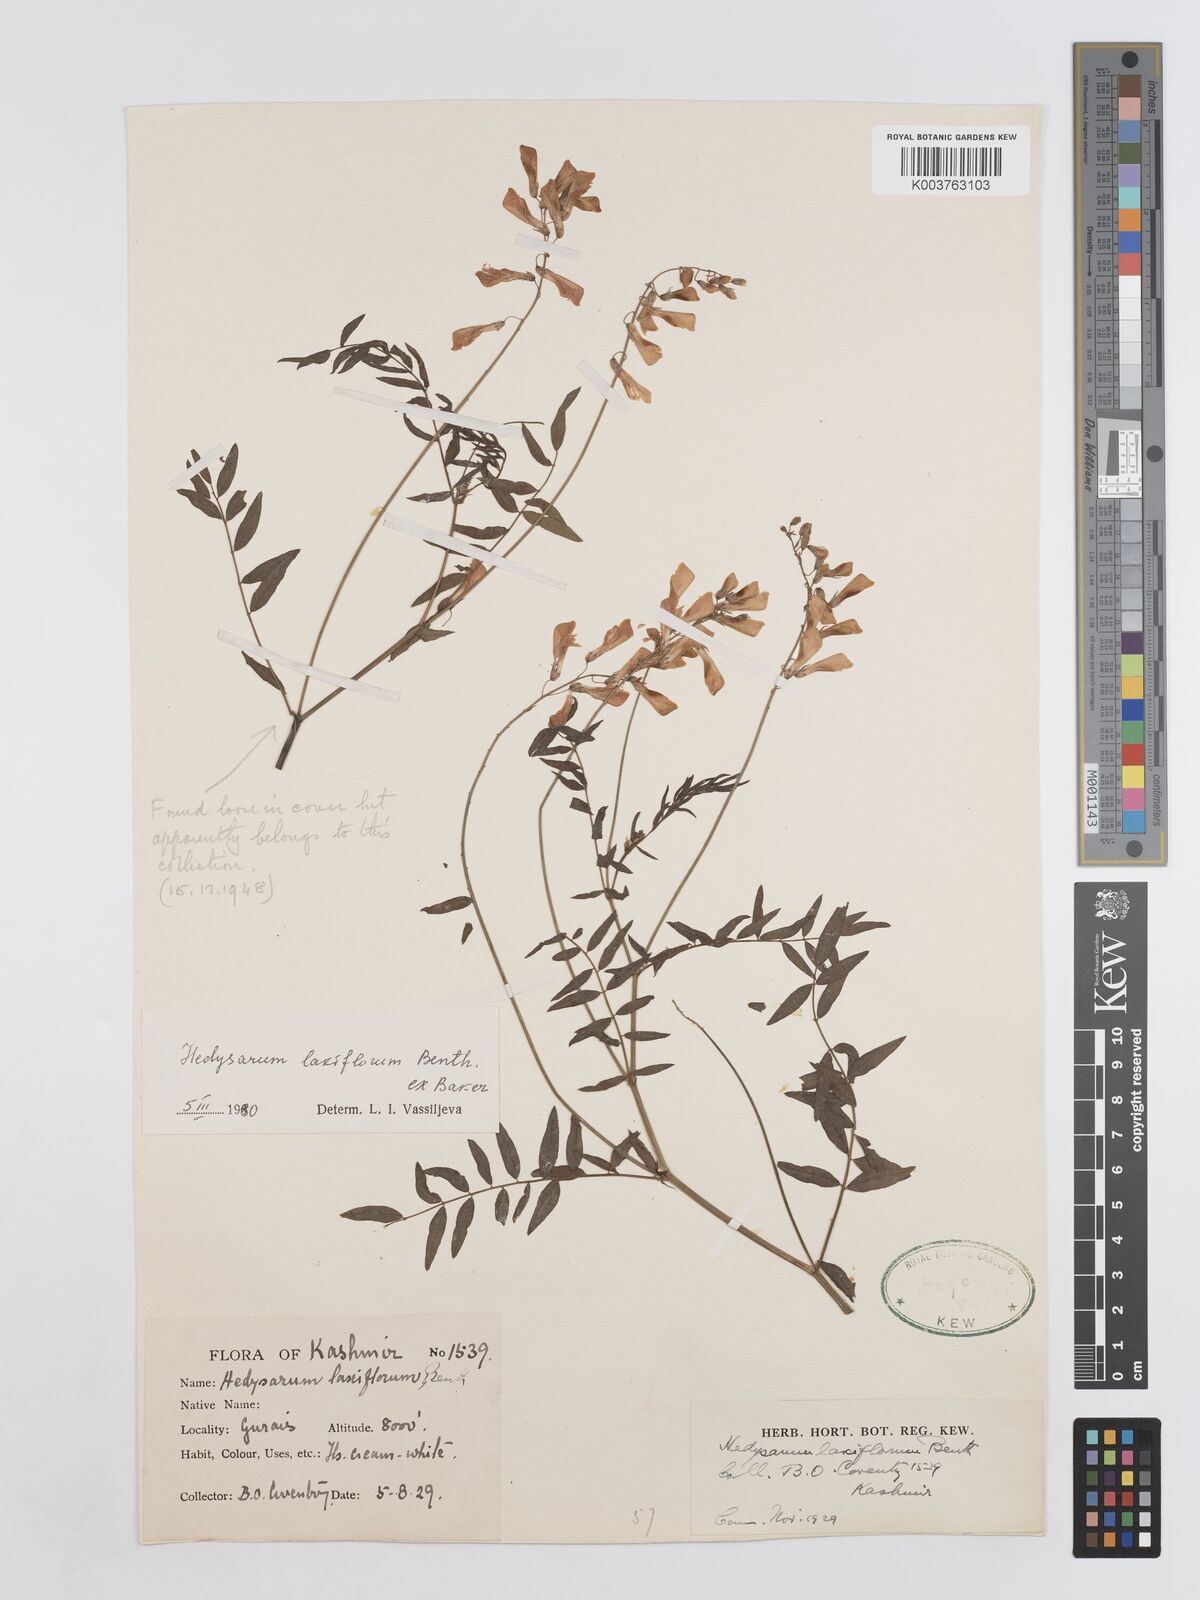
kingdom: Plantae
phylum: Tracheophyta
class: Magnoliopsida
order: Fabales
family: Fabaceae
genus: Hedysarum
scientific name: Hedysarum alpinum
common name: Alpine sweet-vetch
